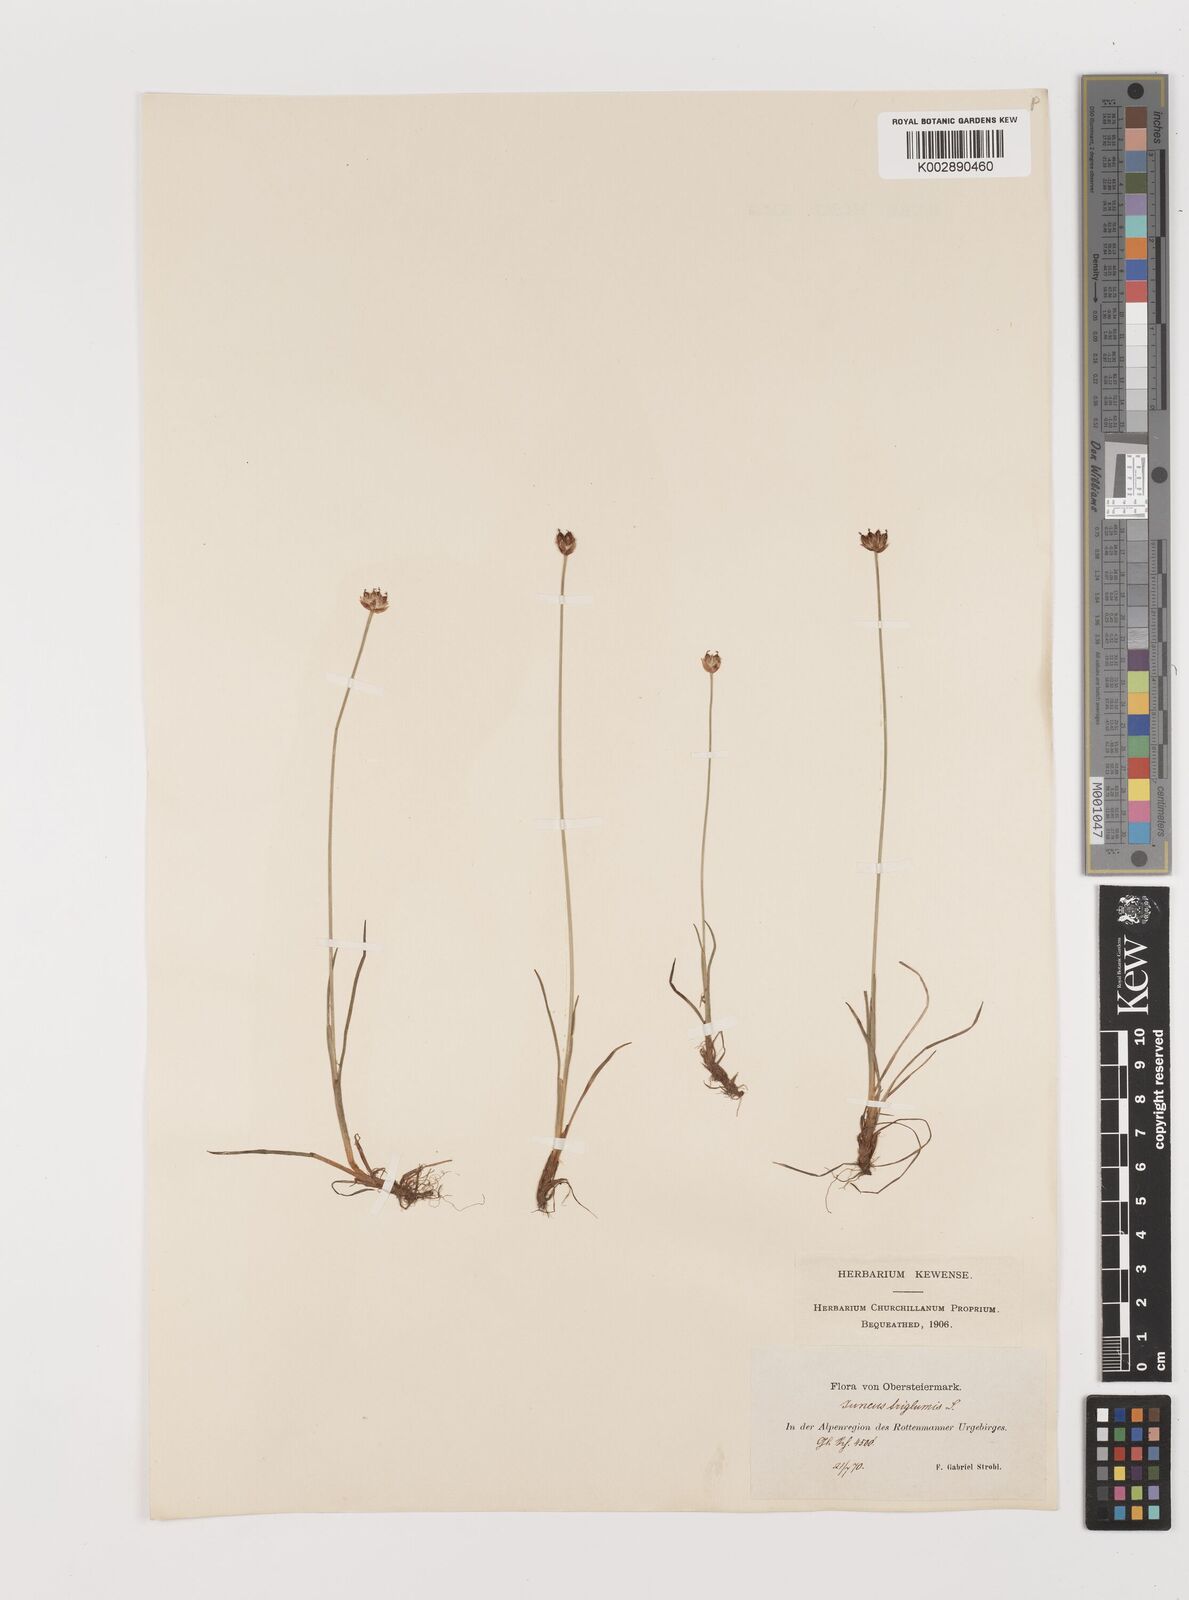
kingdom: Plantae
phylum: Tracheophyta
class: Liliopsida
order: Poales
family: Juncaceae
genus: Juncus
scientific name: Juncus triglumis
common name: Three-flowered rush
